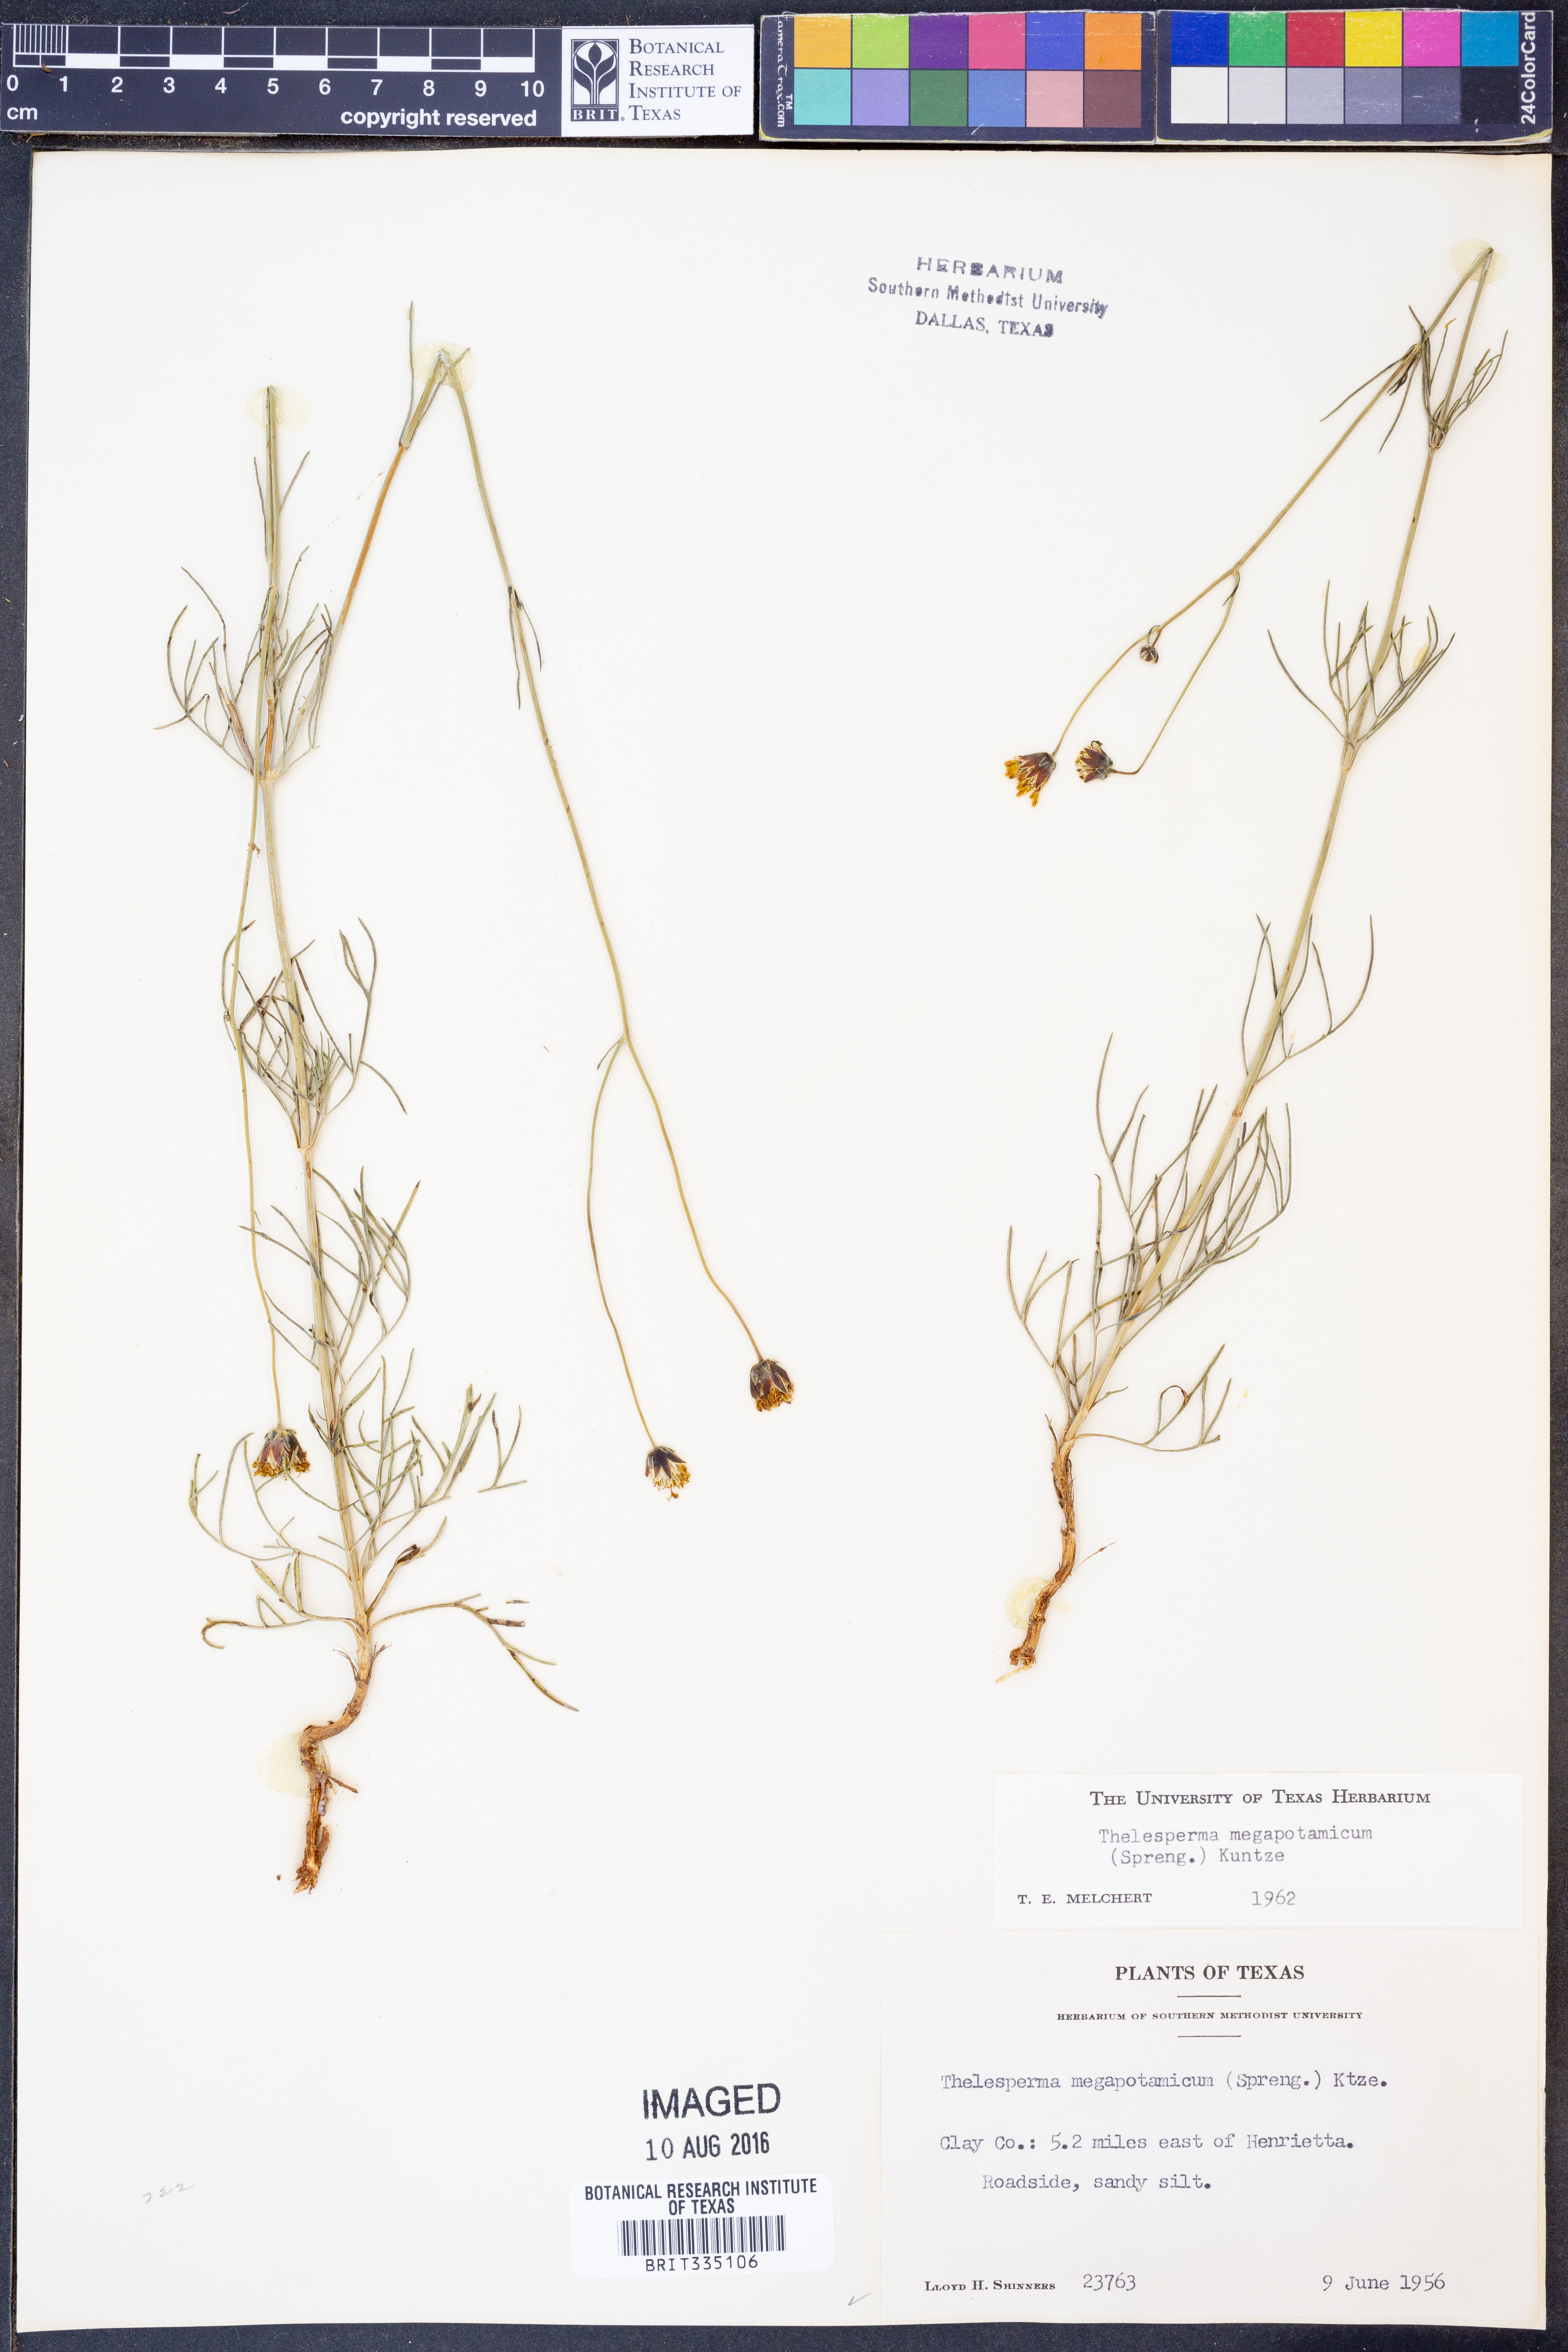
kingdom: Plantae
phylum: Tracheophyta
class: Magnoliopsida
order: Asterales
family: Asteraceae
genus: Thelesperma
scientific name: Thelesperma megapotamicum
